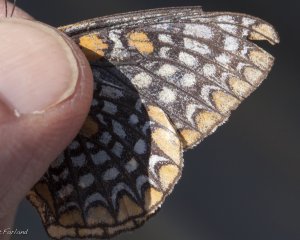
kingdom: Animalia
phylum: Arthropoda
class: Insecta
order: Lepidoptera
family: Nymphalidae
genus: Euphydryas
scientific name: Euphydryas phaeton
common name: Baltimore Checkerspot
